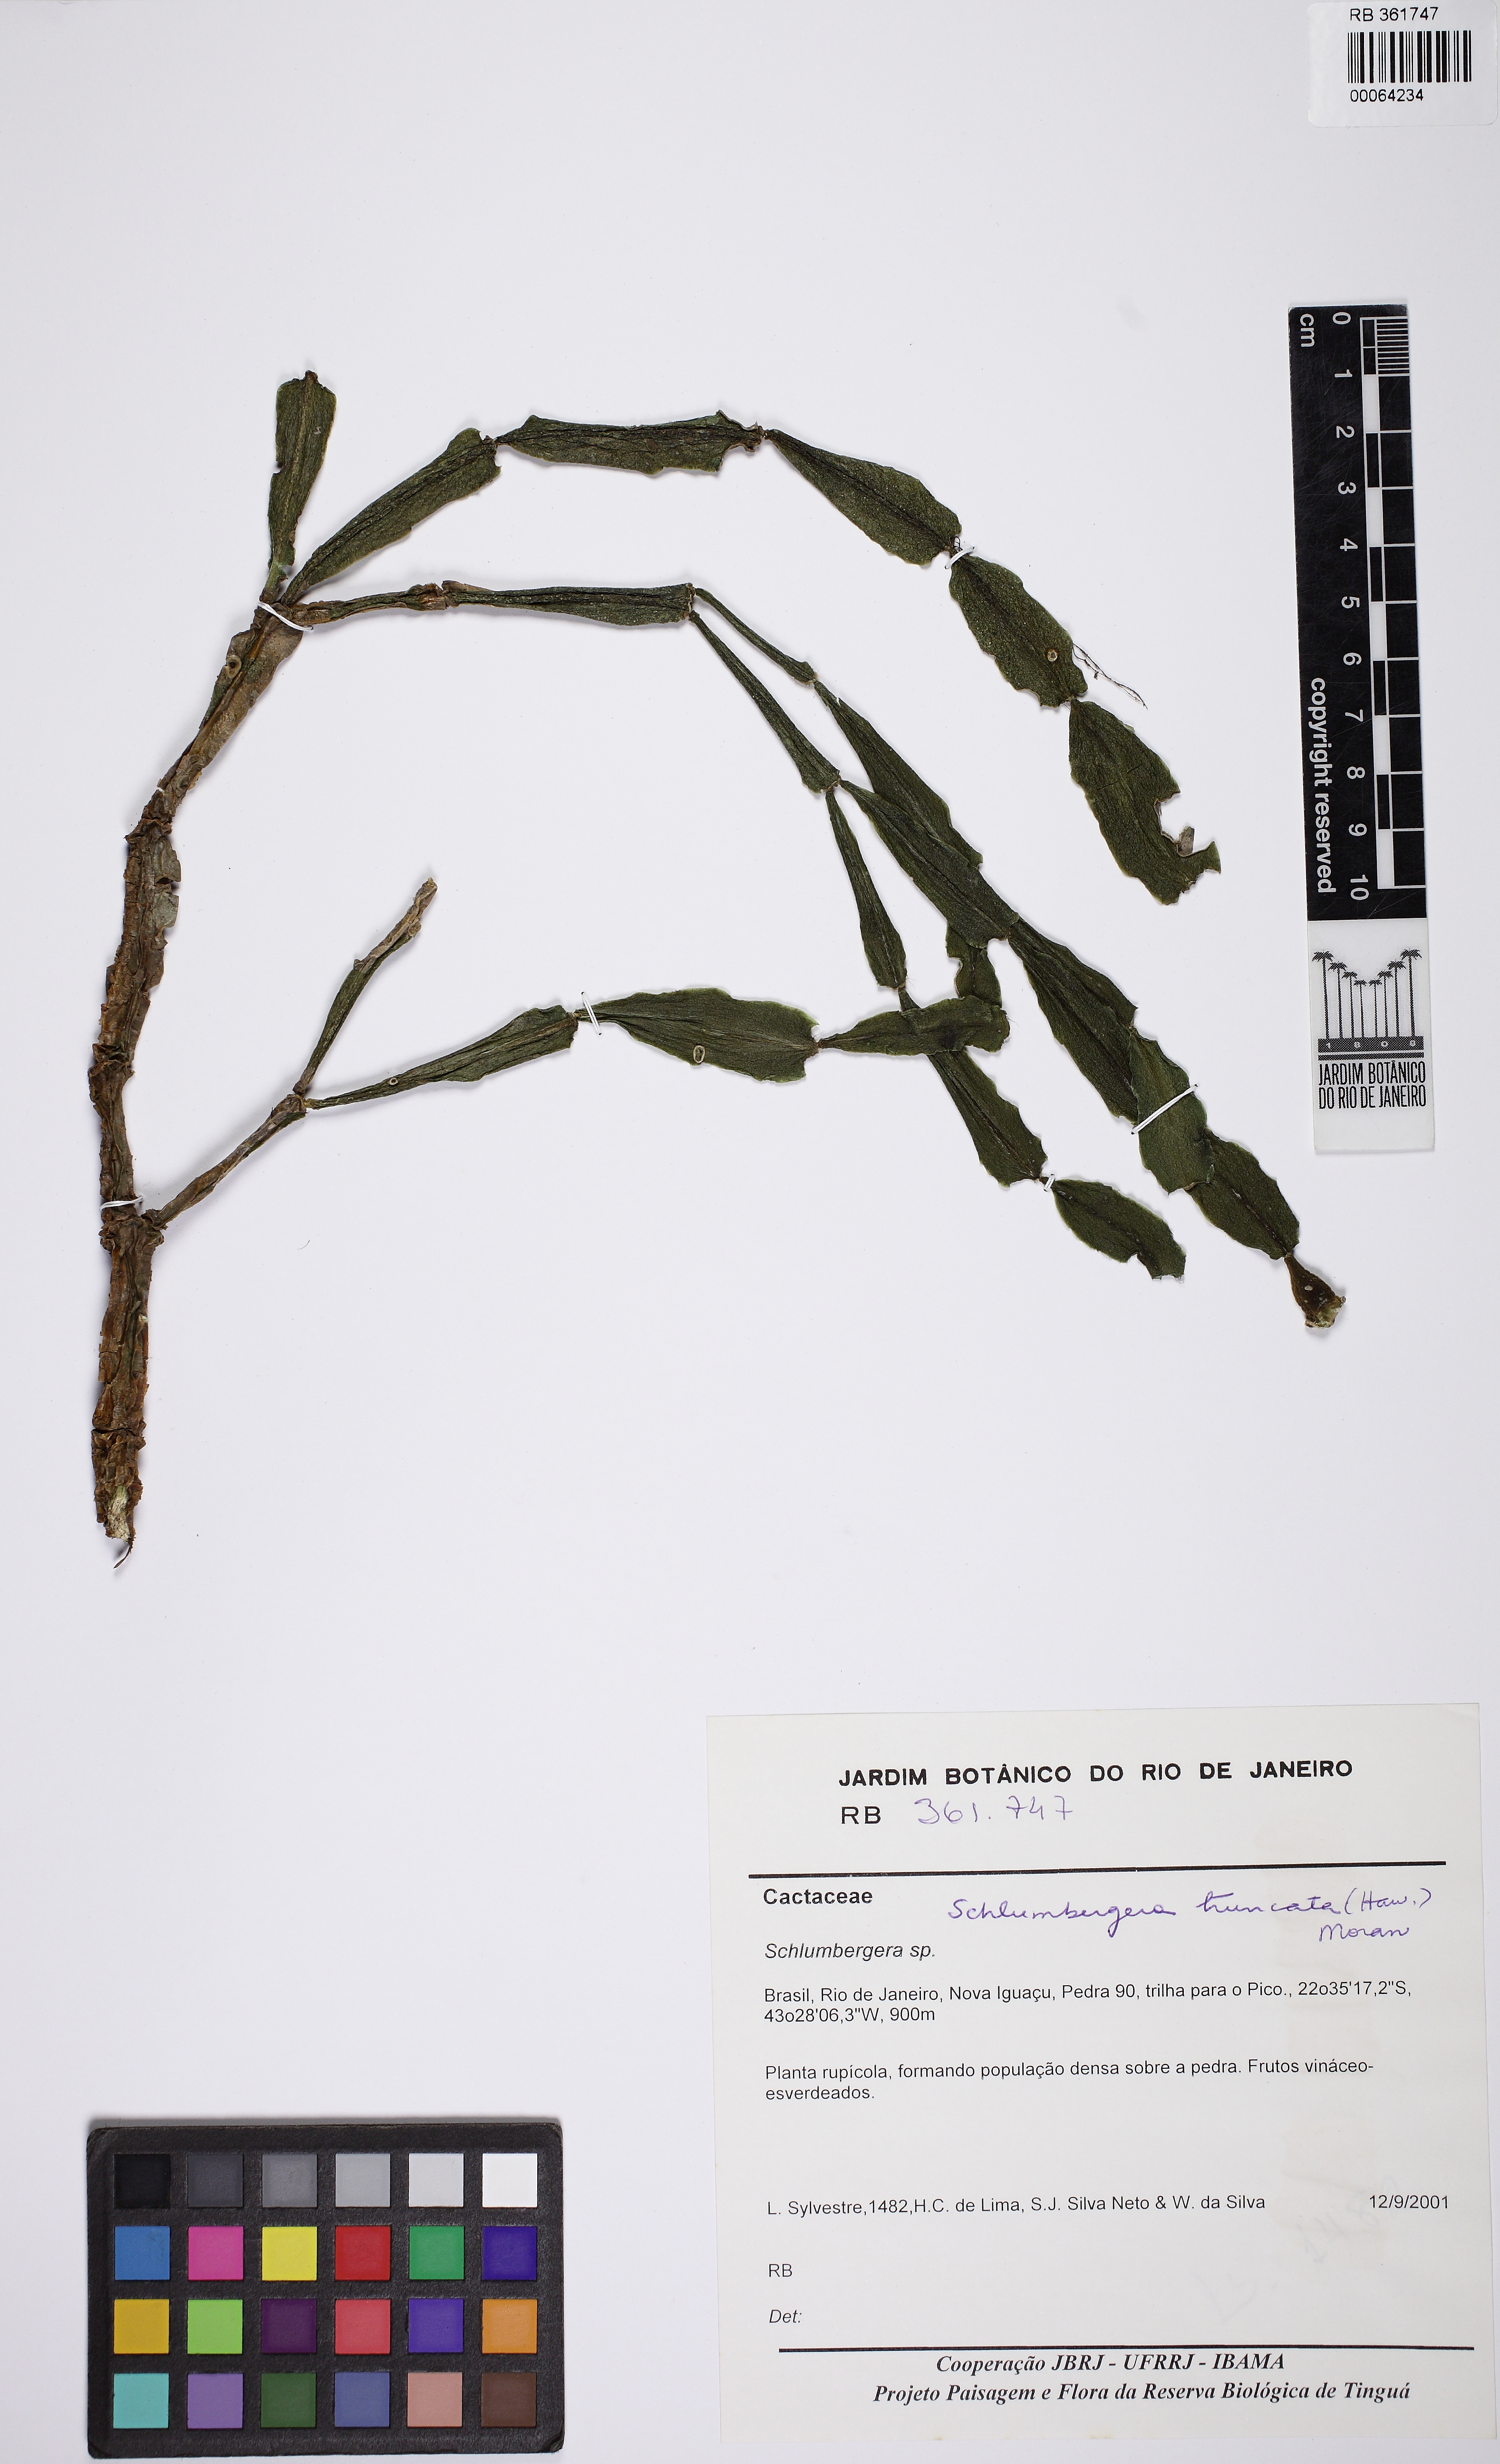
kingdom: Plantae
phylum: Tracheophyta
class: Magnoliopsida
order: Caryophyllales
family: Cactaceae
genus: Schlumbergera
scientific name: Schlumbergera truncata
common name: Thanksgiving cactus
